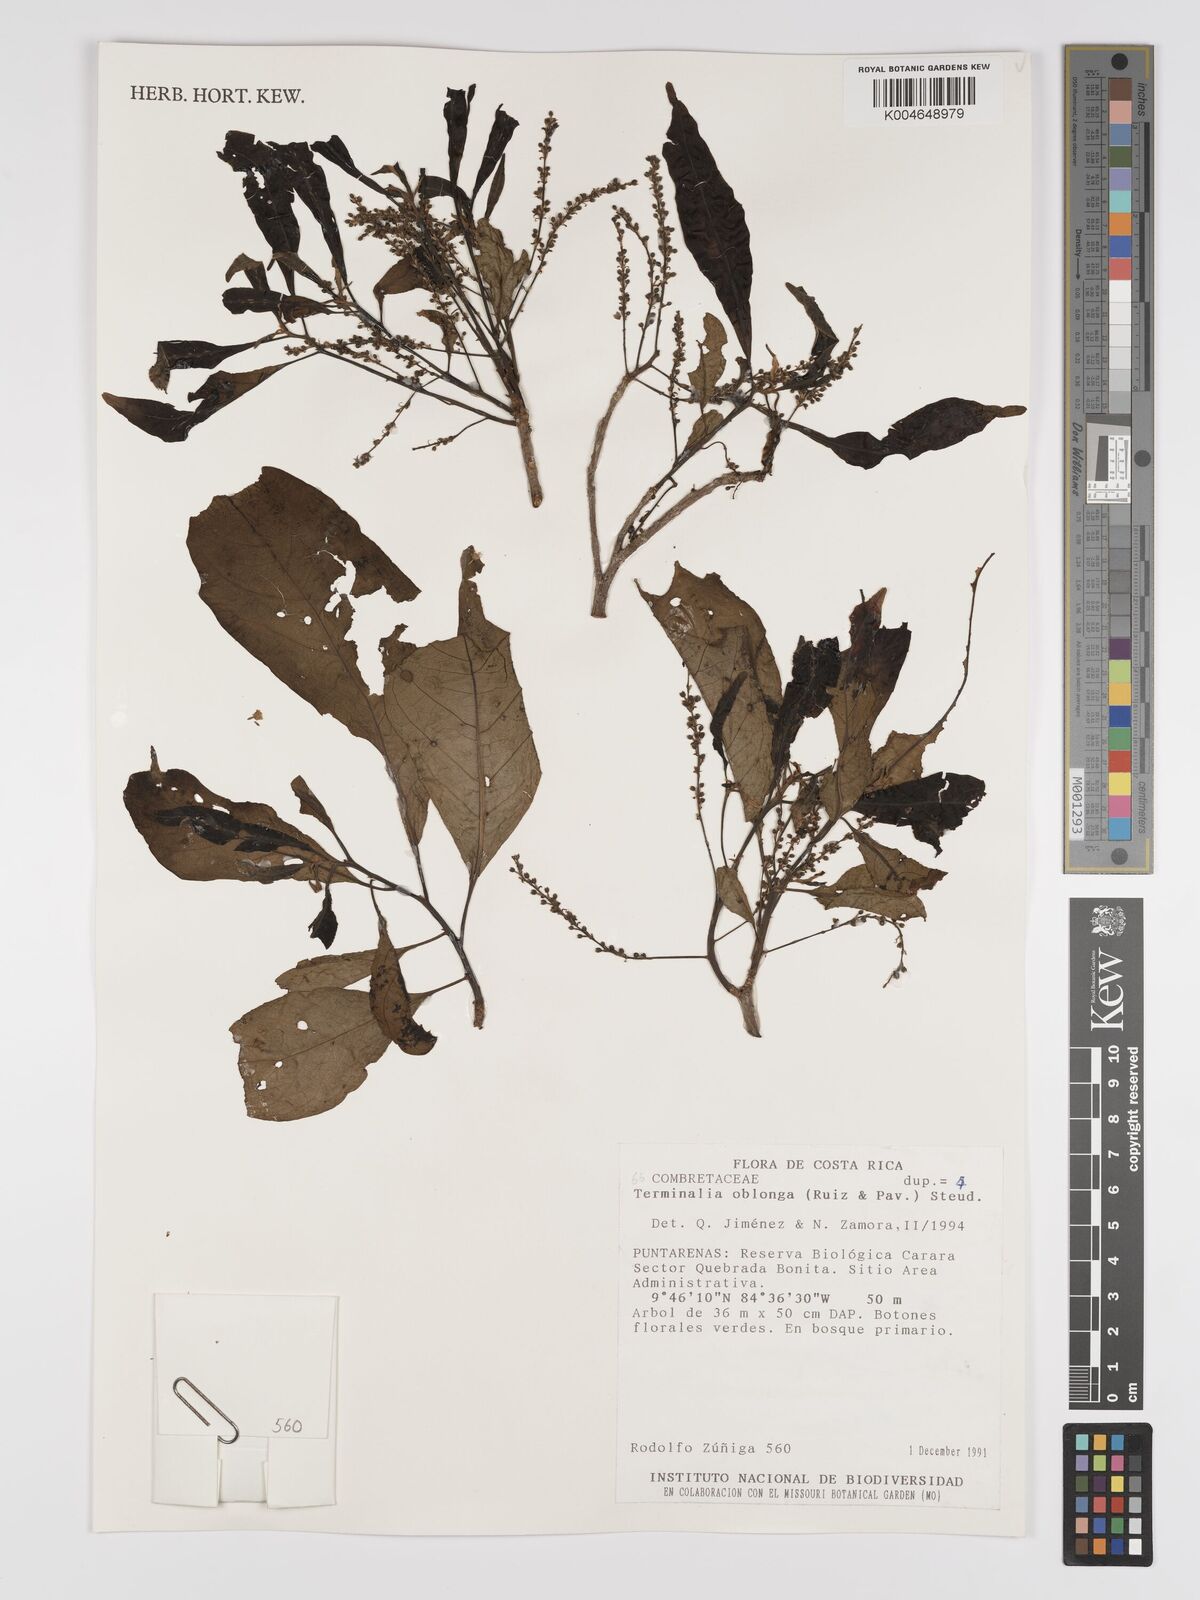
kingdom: Plantae
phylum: Tracheophyta
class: Magnoliopsida
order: Myrtales
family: Combretaceae
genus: Terminalia
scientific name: Terminalia oblonga
